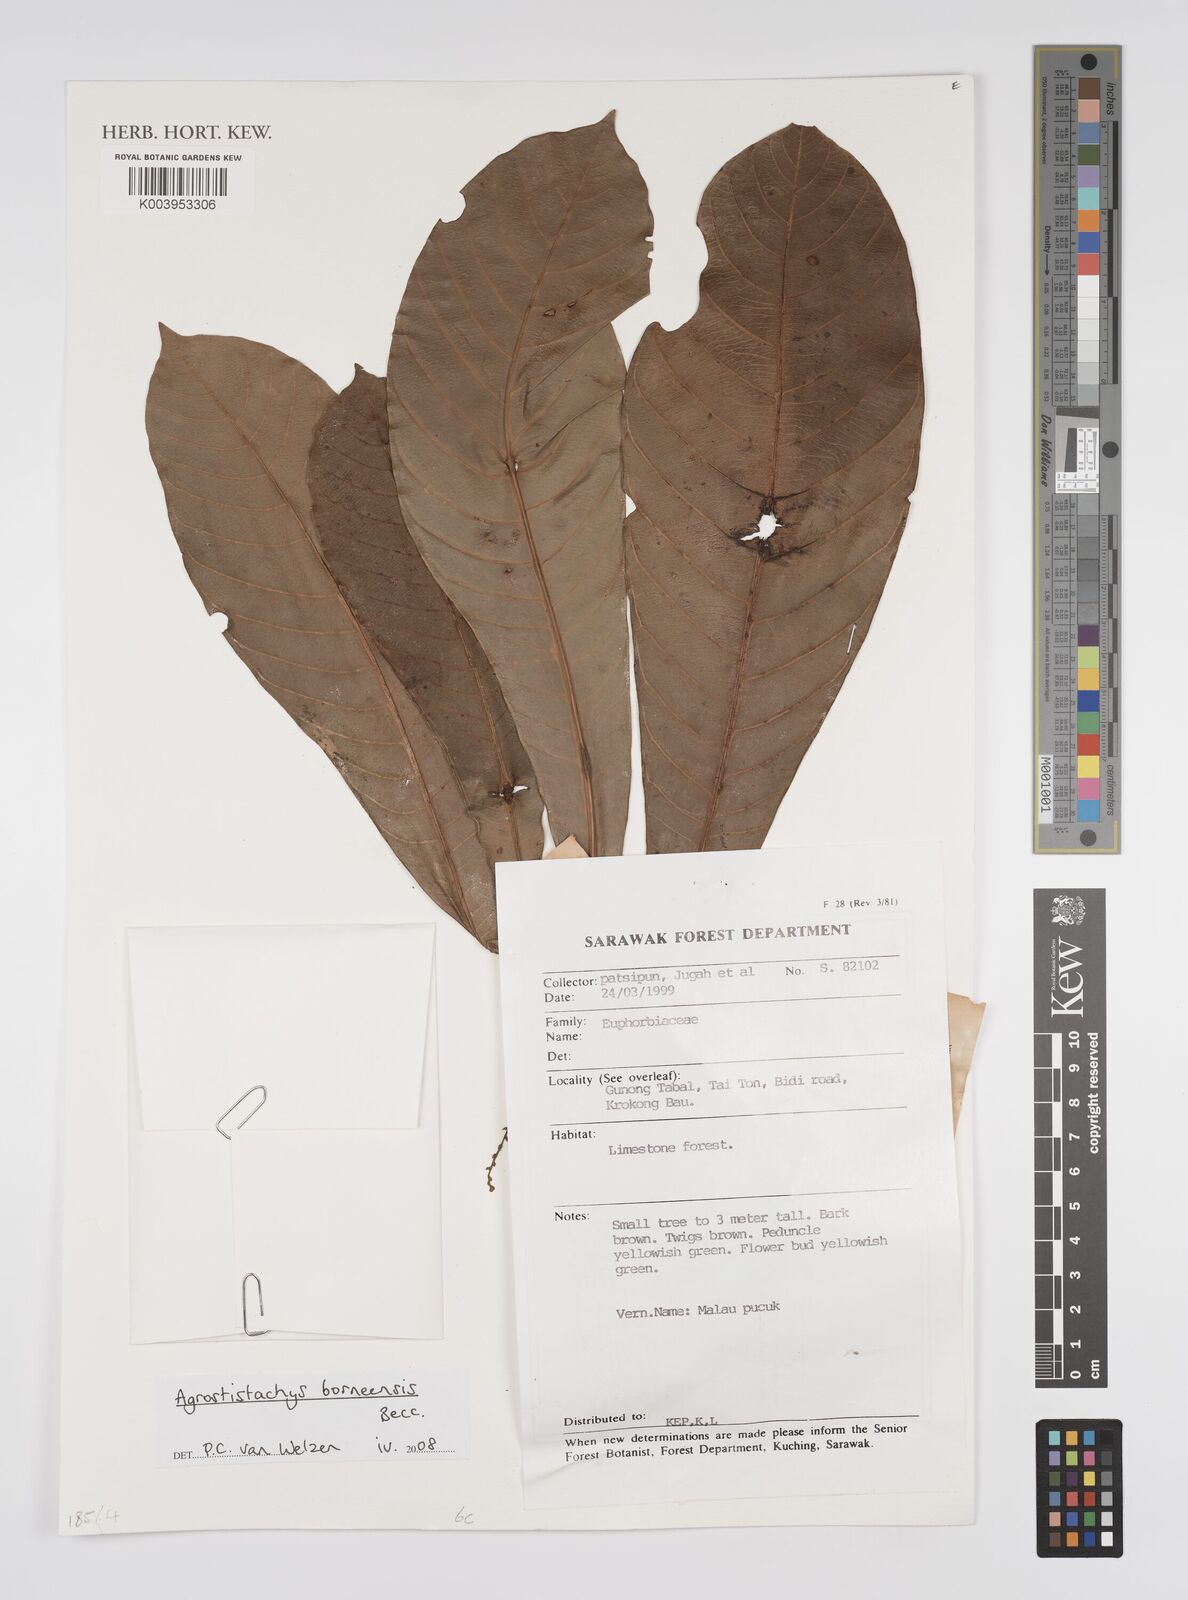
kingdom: Plantae
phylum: Tracheophyta
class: Magnoliopsida
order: Malpighiales
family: Euphorbiaceae
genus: Agrostistachys
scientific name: Agrostistachys borneensis
